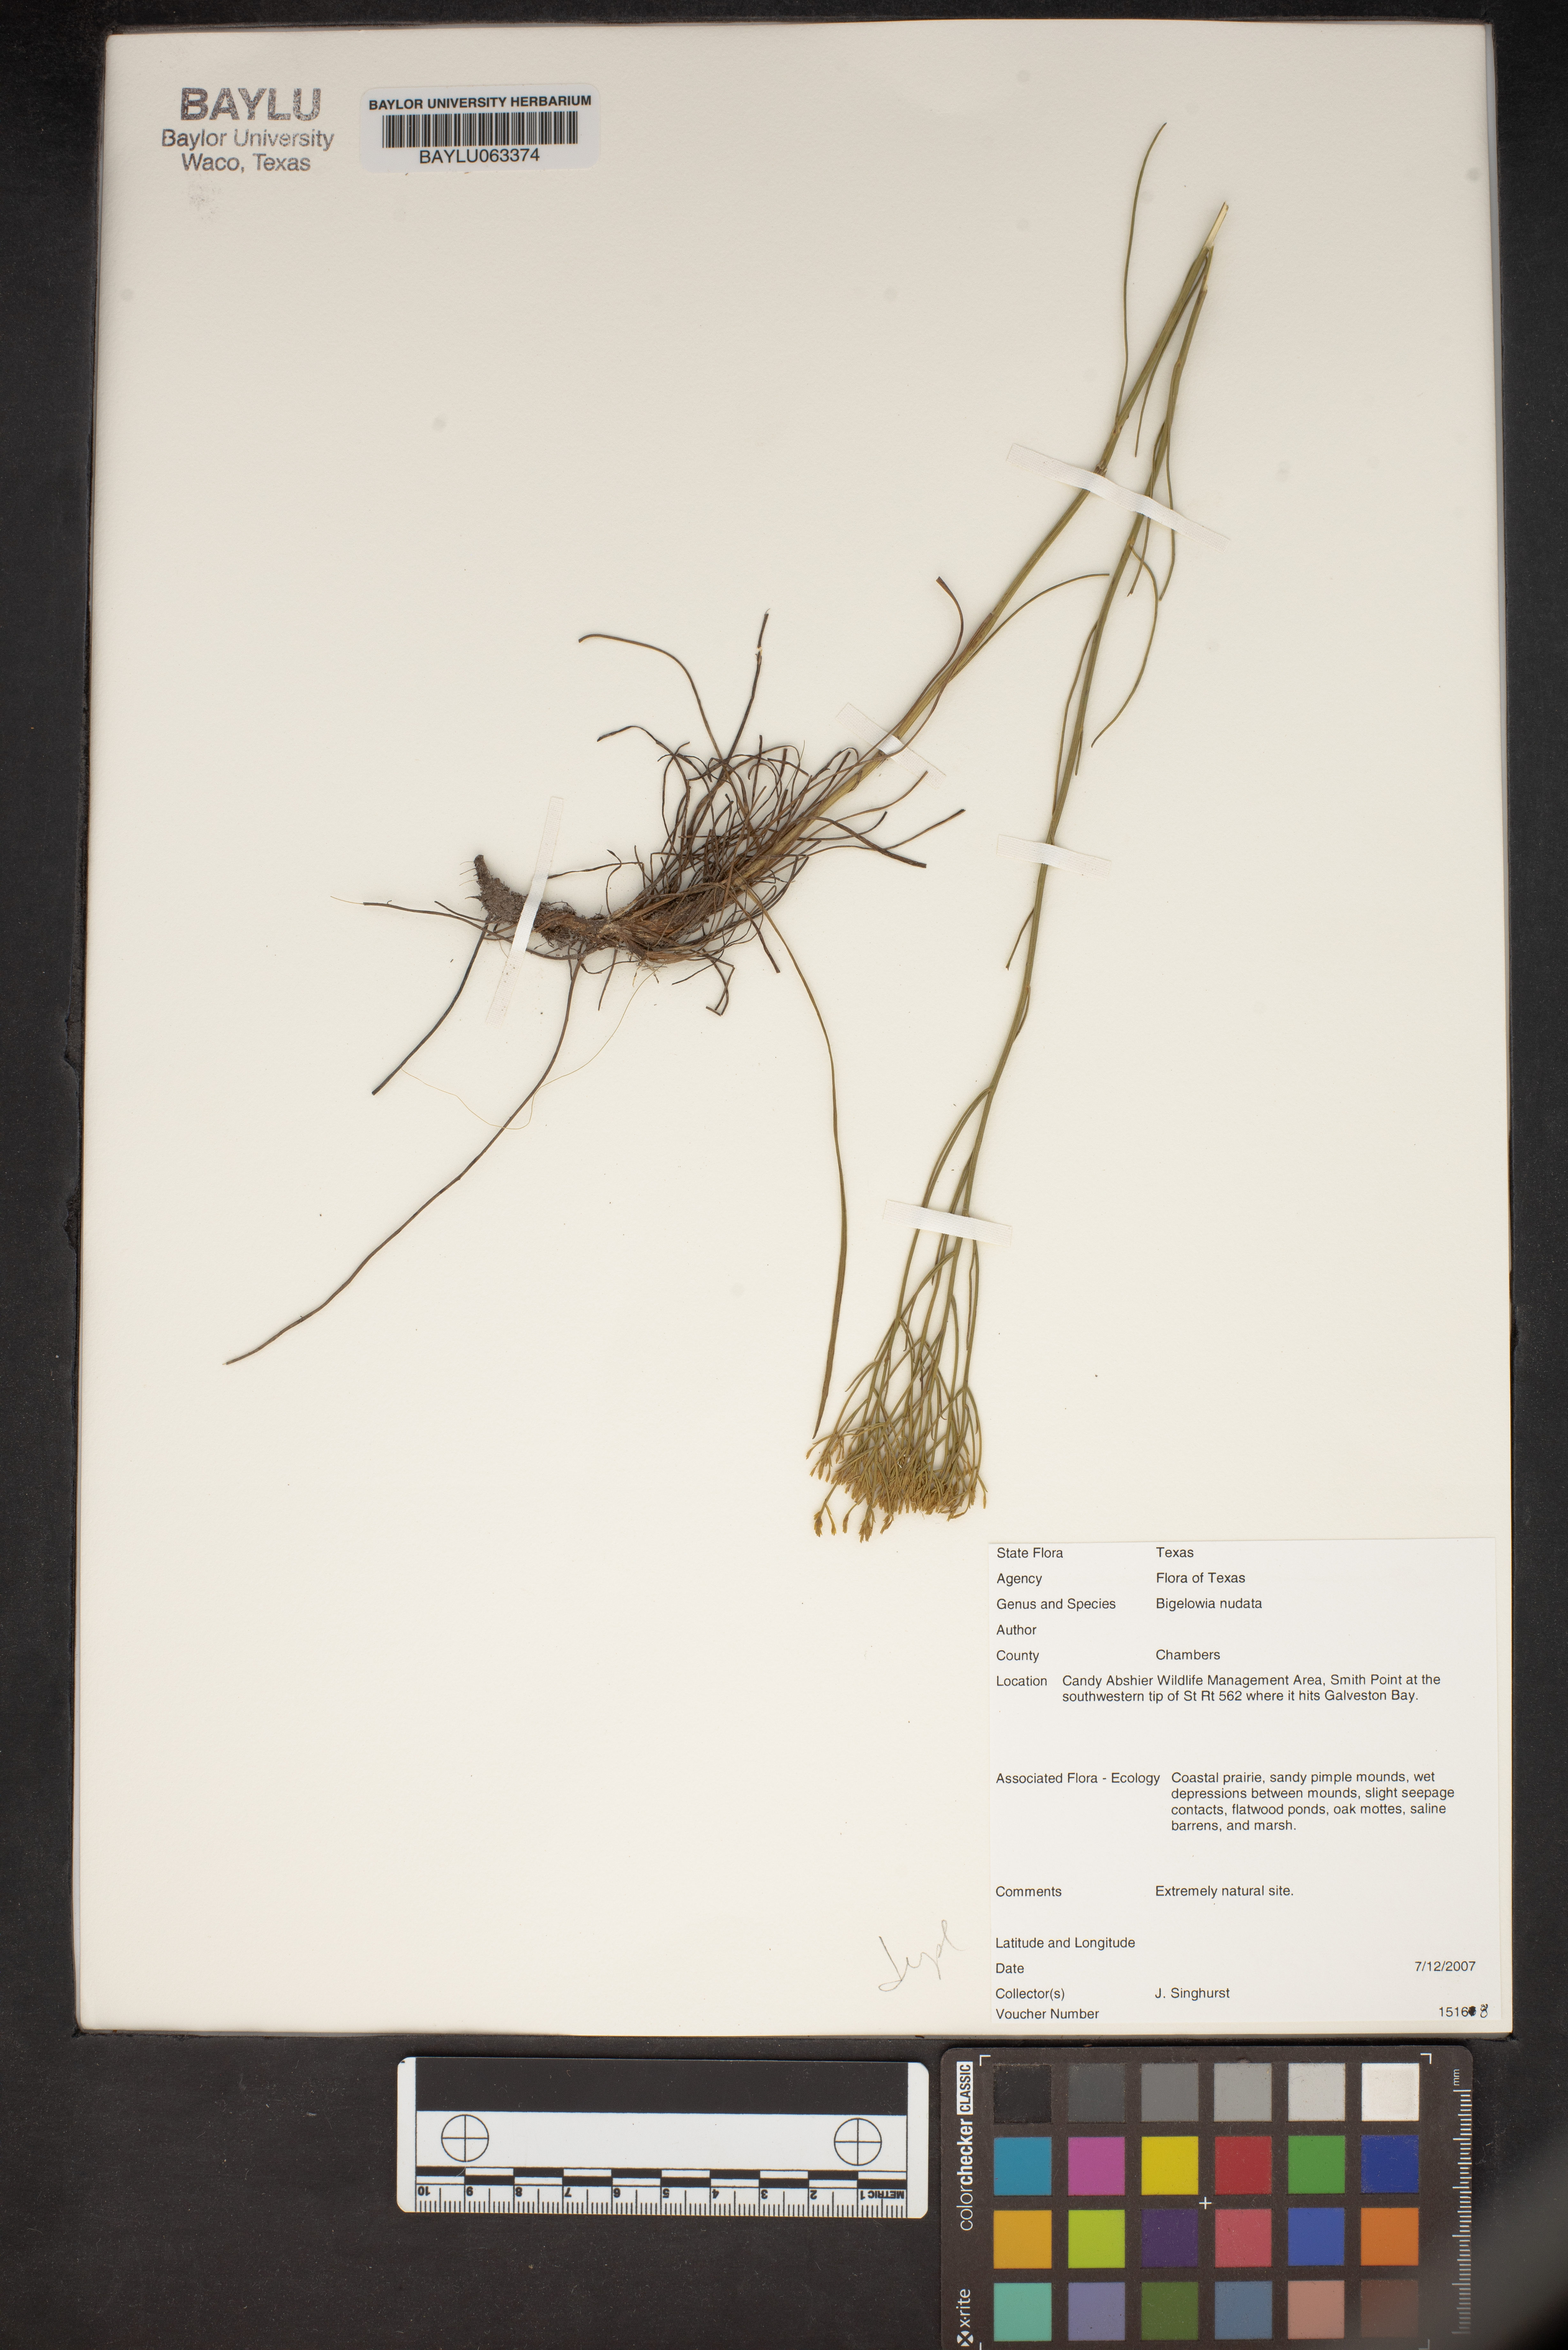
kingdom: Plantae
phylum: Tracheophyta
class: Magnoliopsida
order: Asterales
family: Asteraceae
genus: Bigelowia
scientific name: Bigelowia nudata
